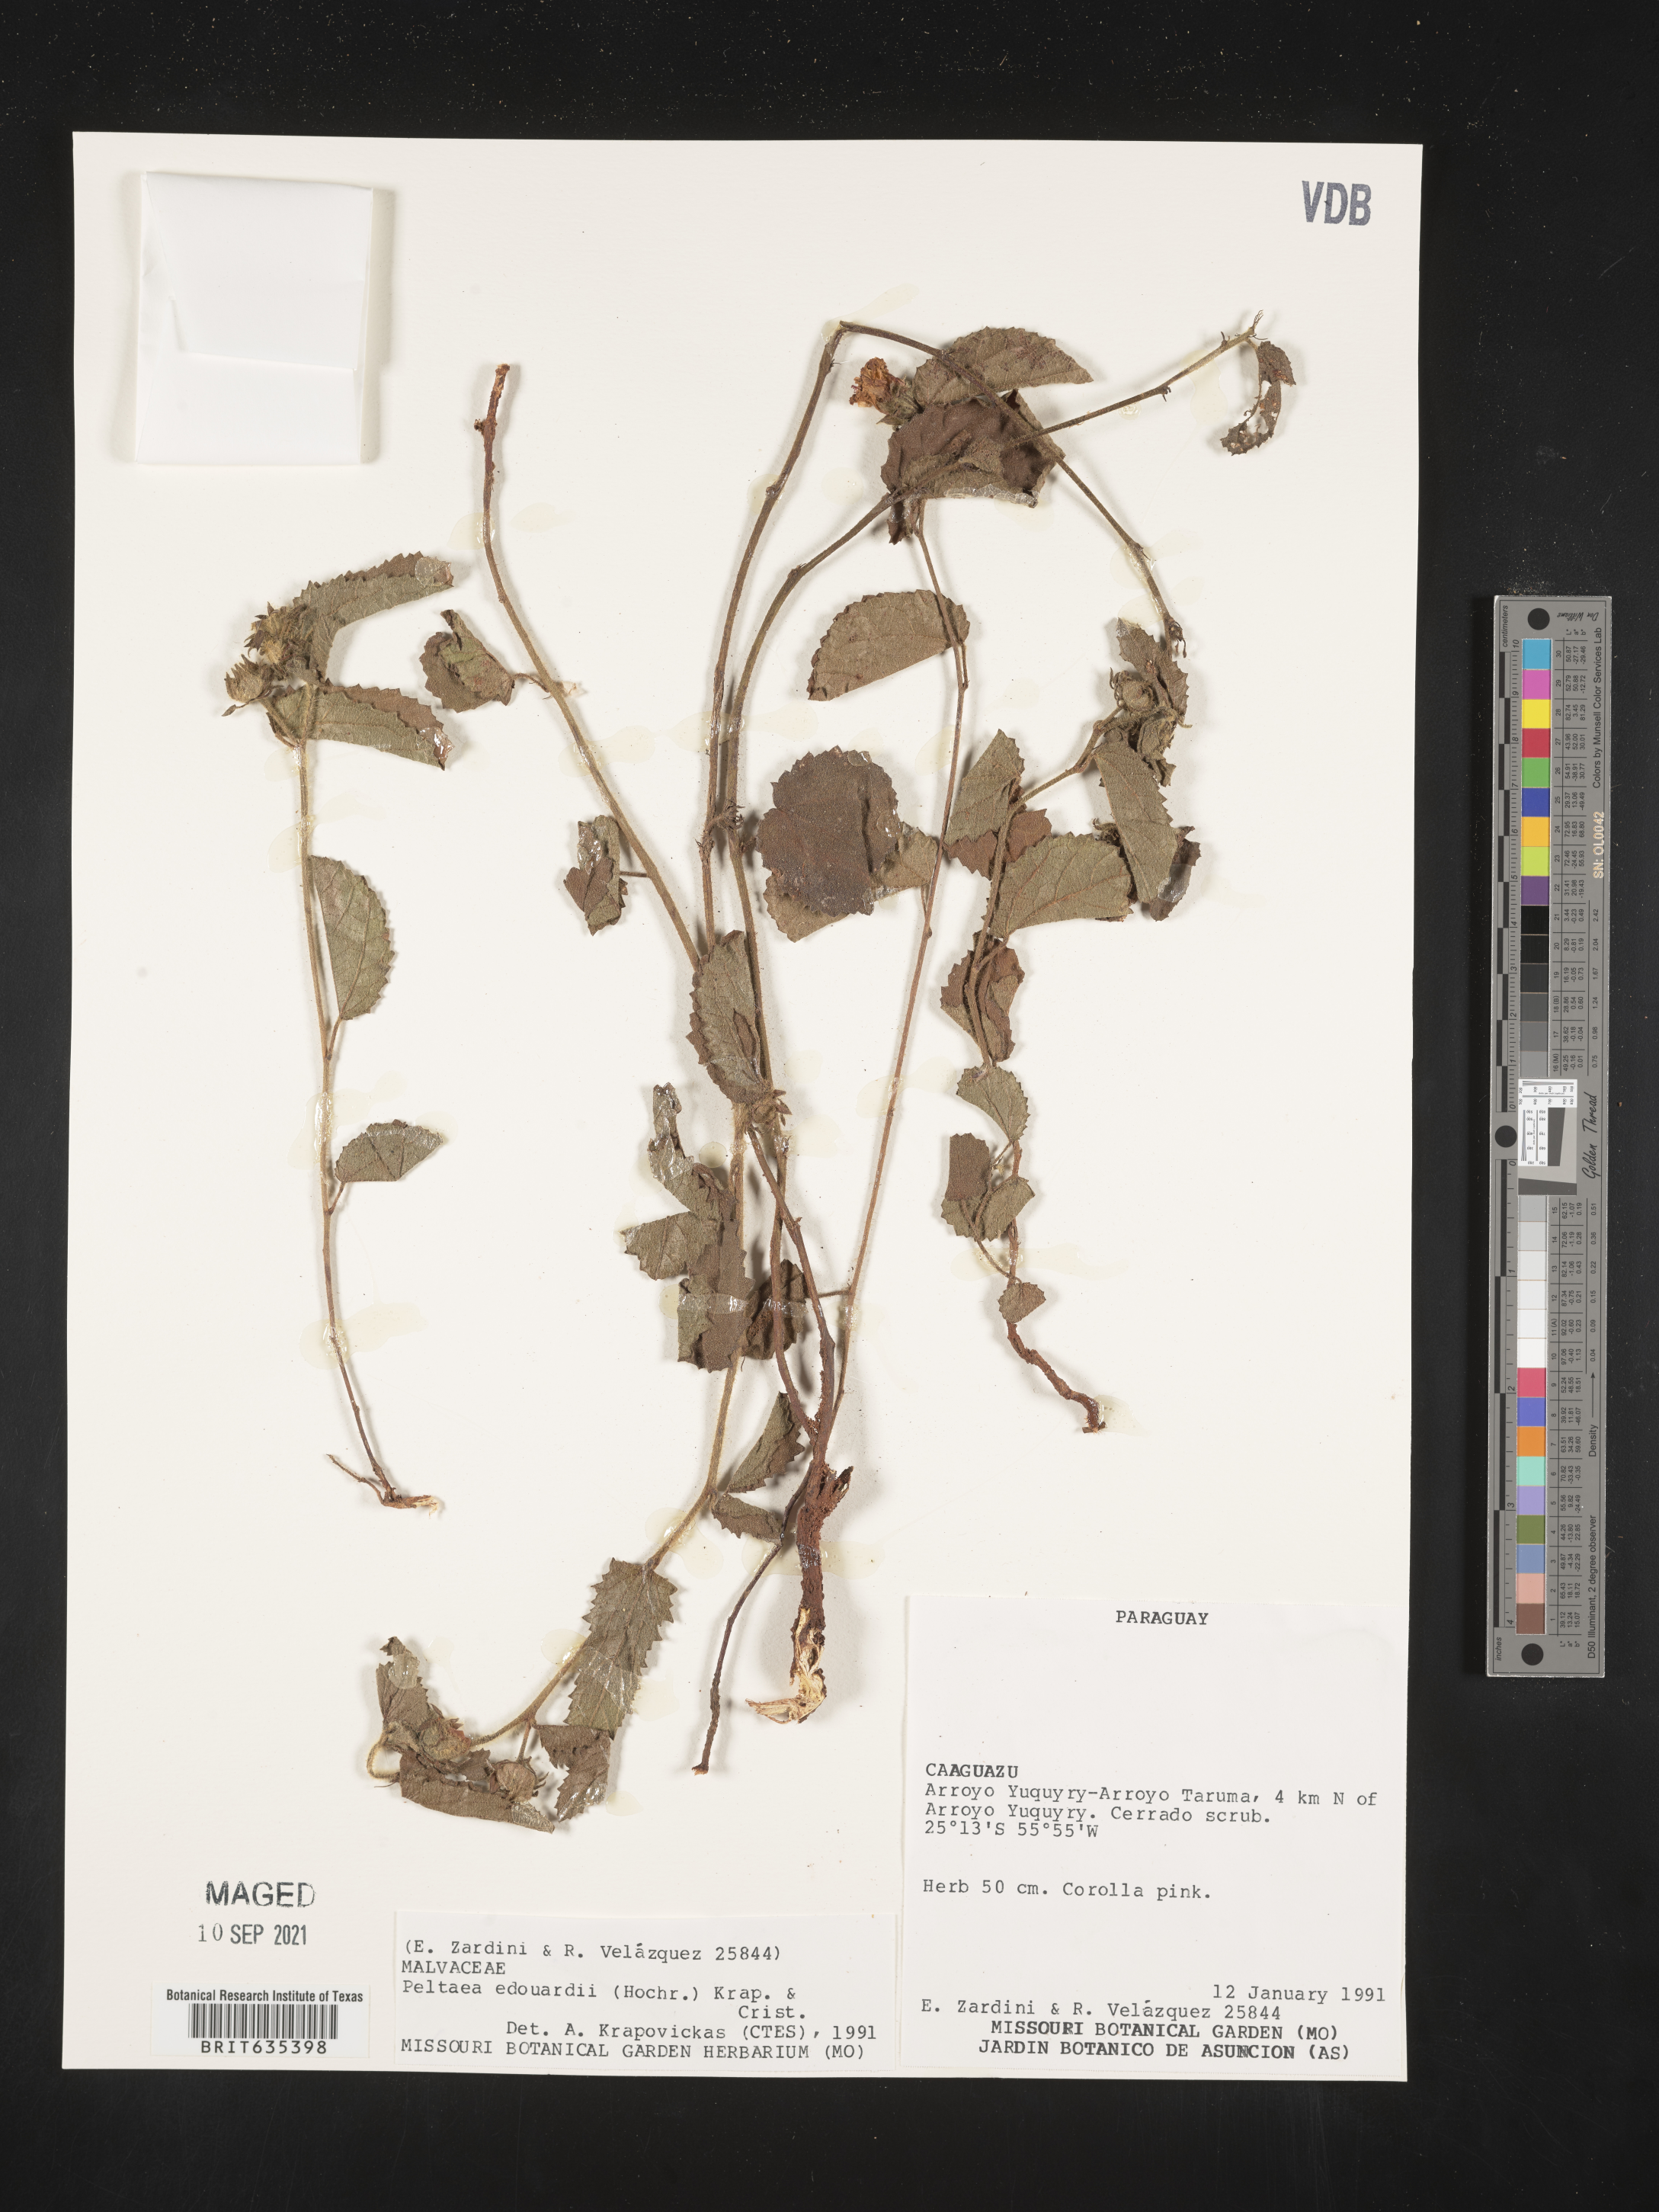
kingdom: Plantae
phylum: Tracheophyta
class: Magnoliopsida
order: Malvales
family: Malvaceae
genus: Peltaea
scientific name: Peltaea
